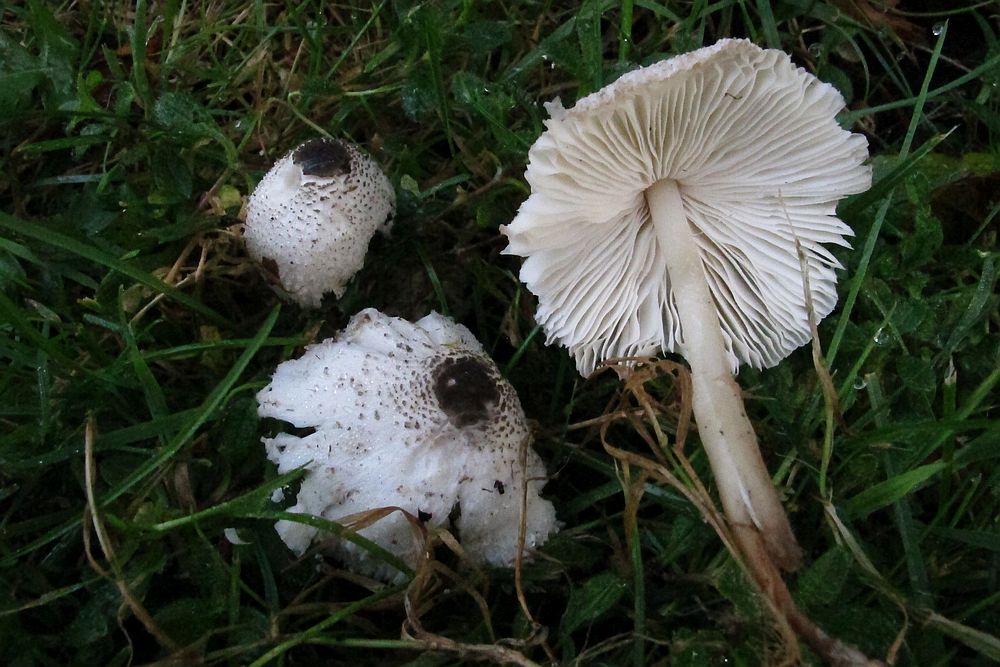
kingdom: Fungi
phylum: Basidiomycota
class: Agaricomycetes
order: Agaricales
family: Agaricaceae
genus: Leucocoprinus
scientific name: Leucocoprinus brebissonii
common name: gråsort silkehat
